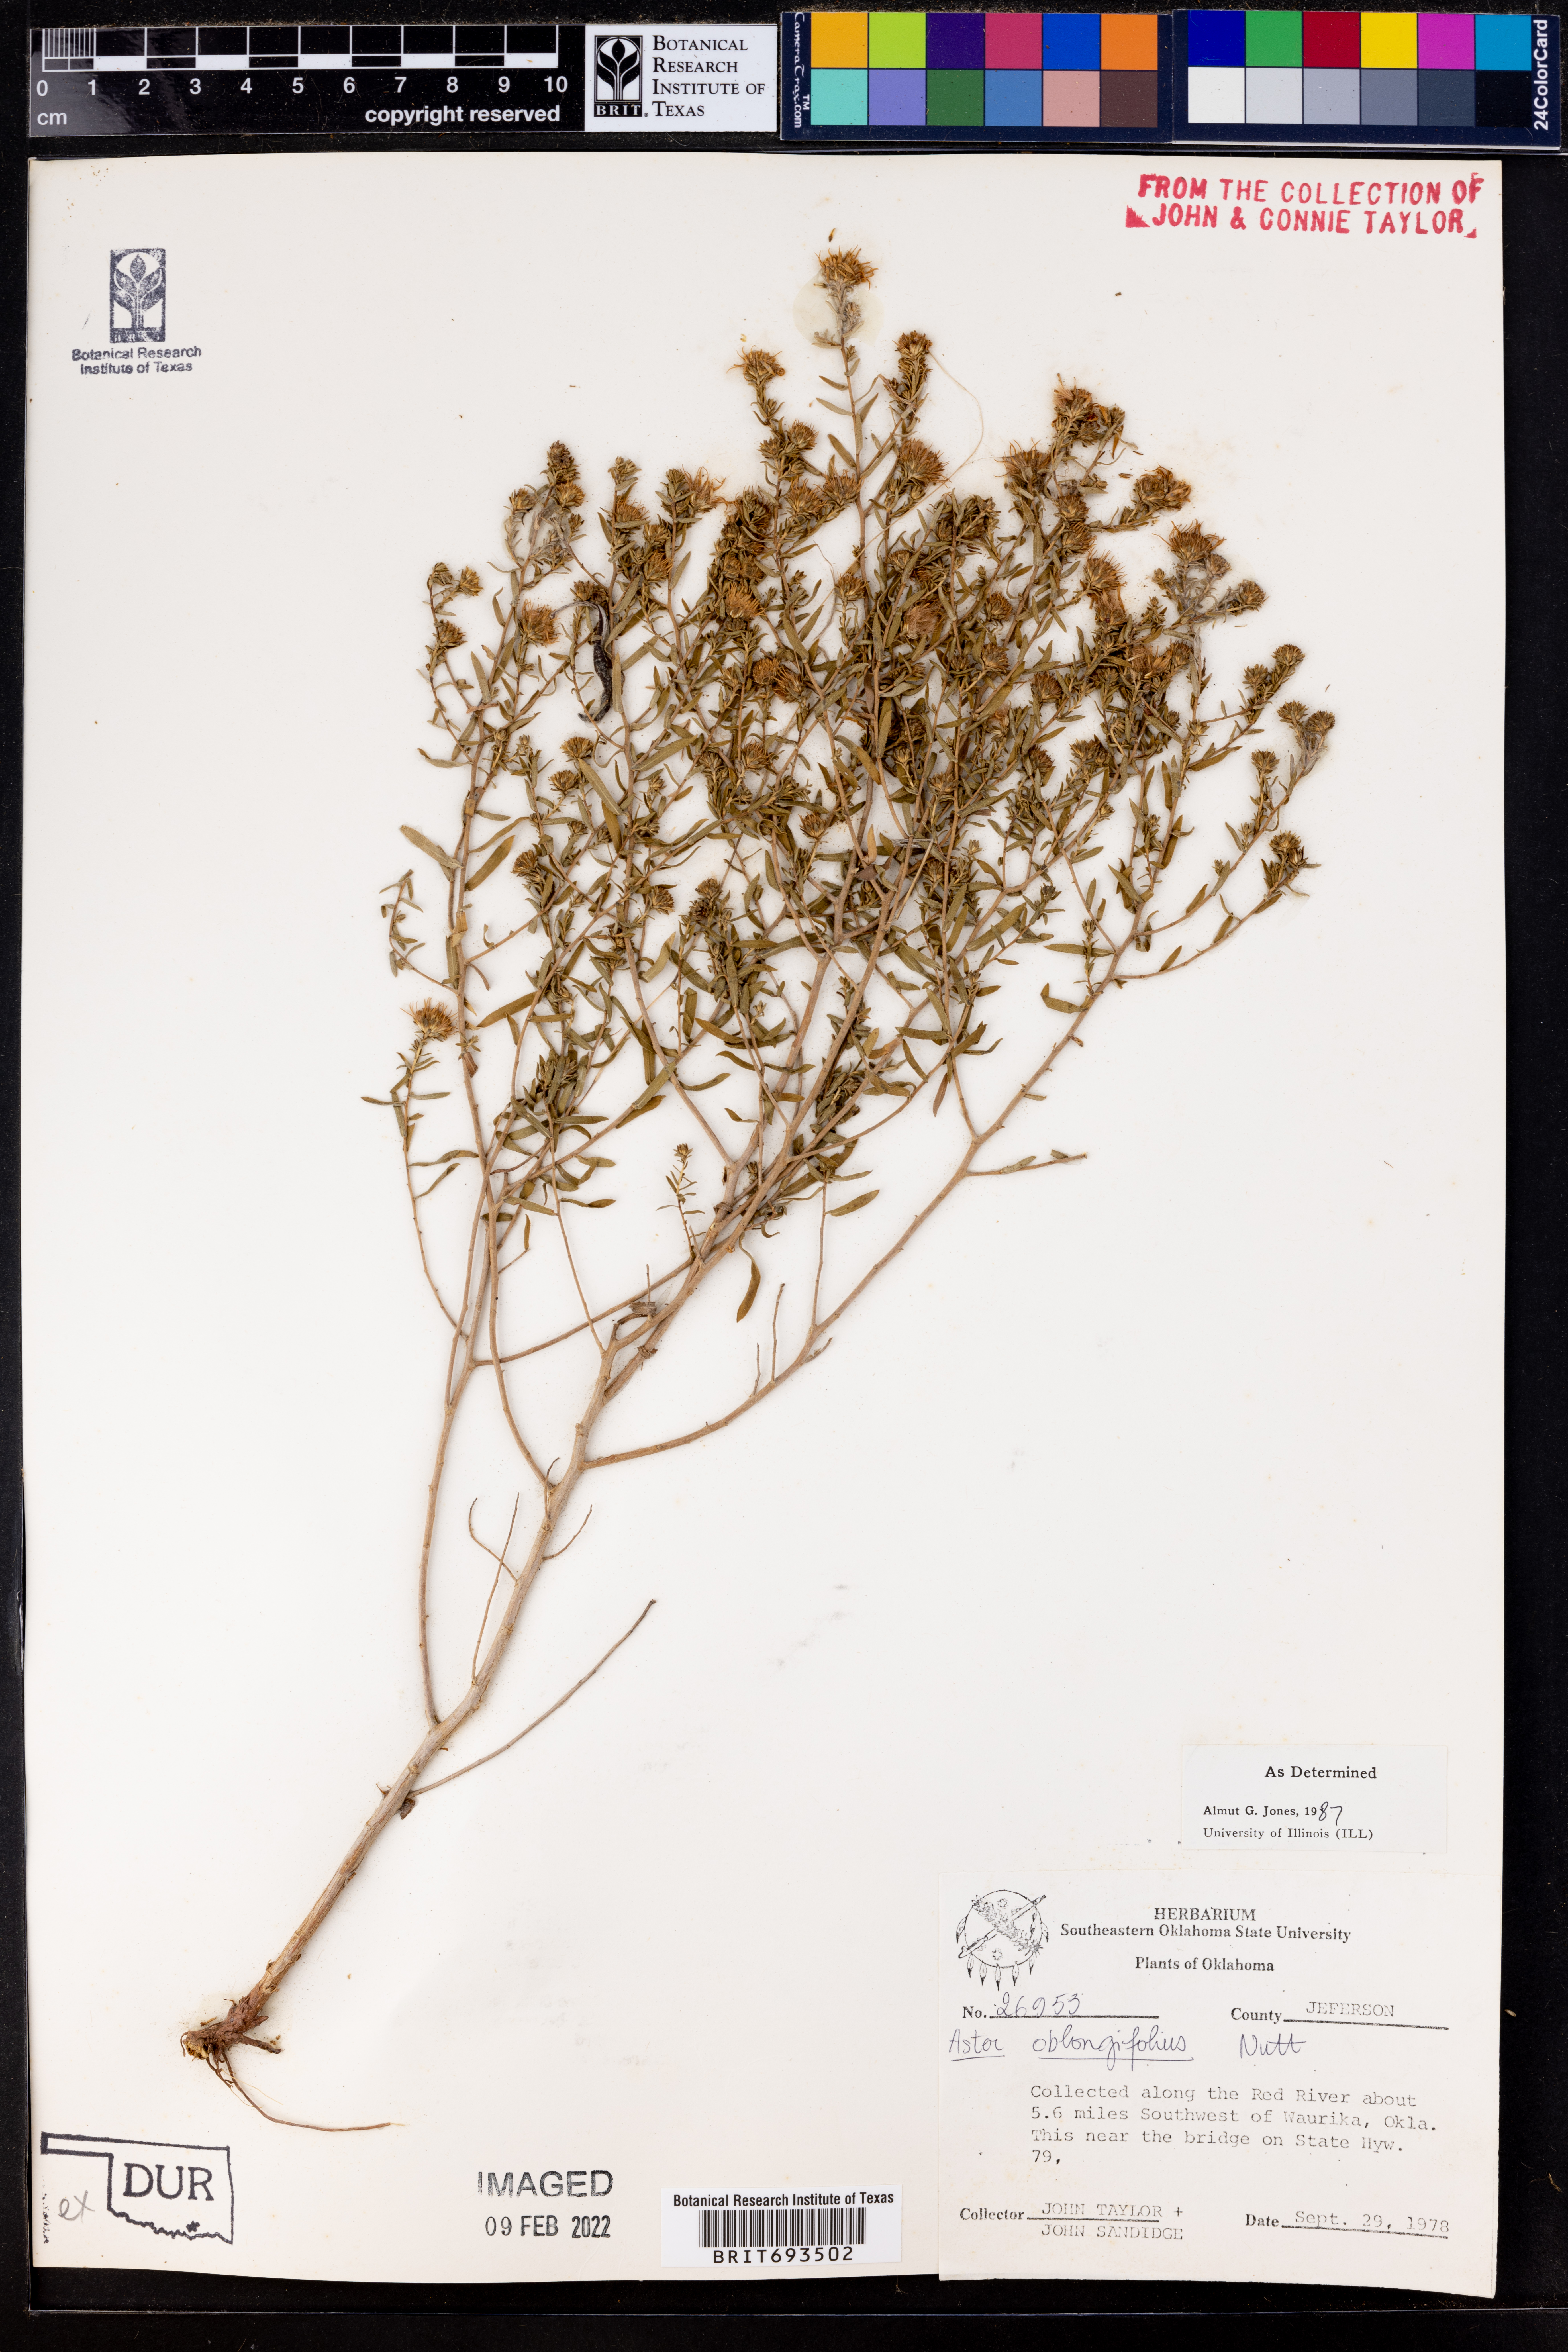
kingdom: Plantae
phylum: Tracheophyta
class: Magnoliopsida
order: Asterales
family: Asteraceae
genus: Symphyotrichum
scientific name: Symphyotrichum oblongifolium
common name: Aromatic aster
